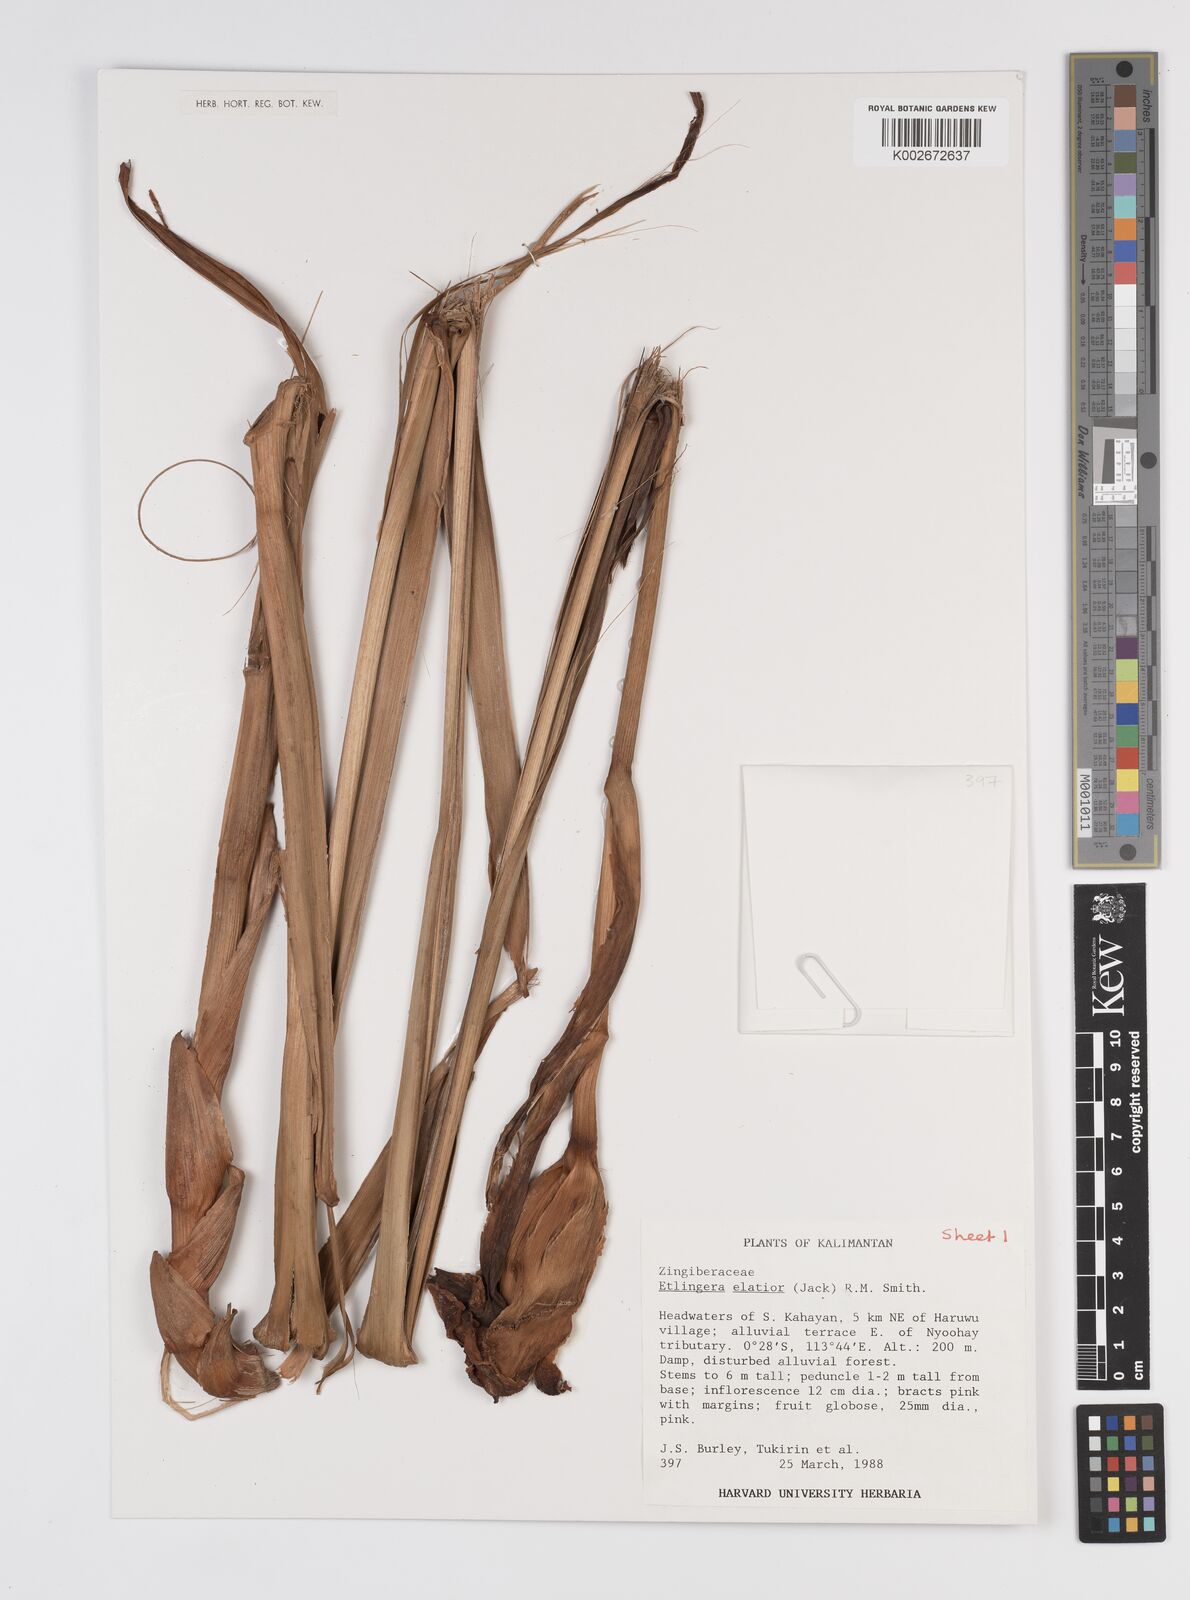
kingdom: Plantae
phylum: Tracheophyta
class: Liliopsida
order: Zingiberales
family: Zingiberaceae
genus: Etlingera
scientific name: Etlingera elatior
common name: Philippine waxflower
